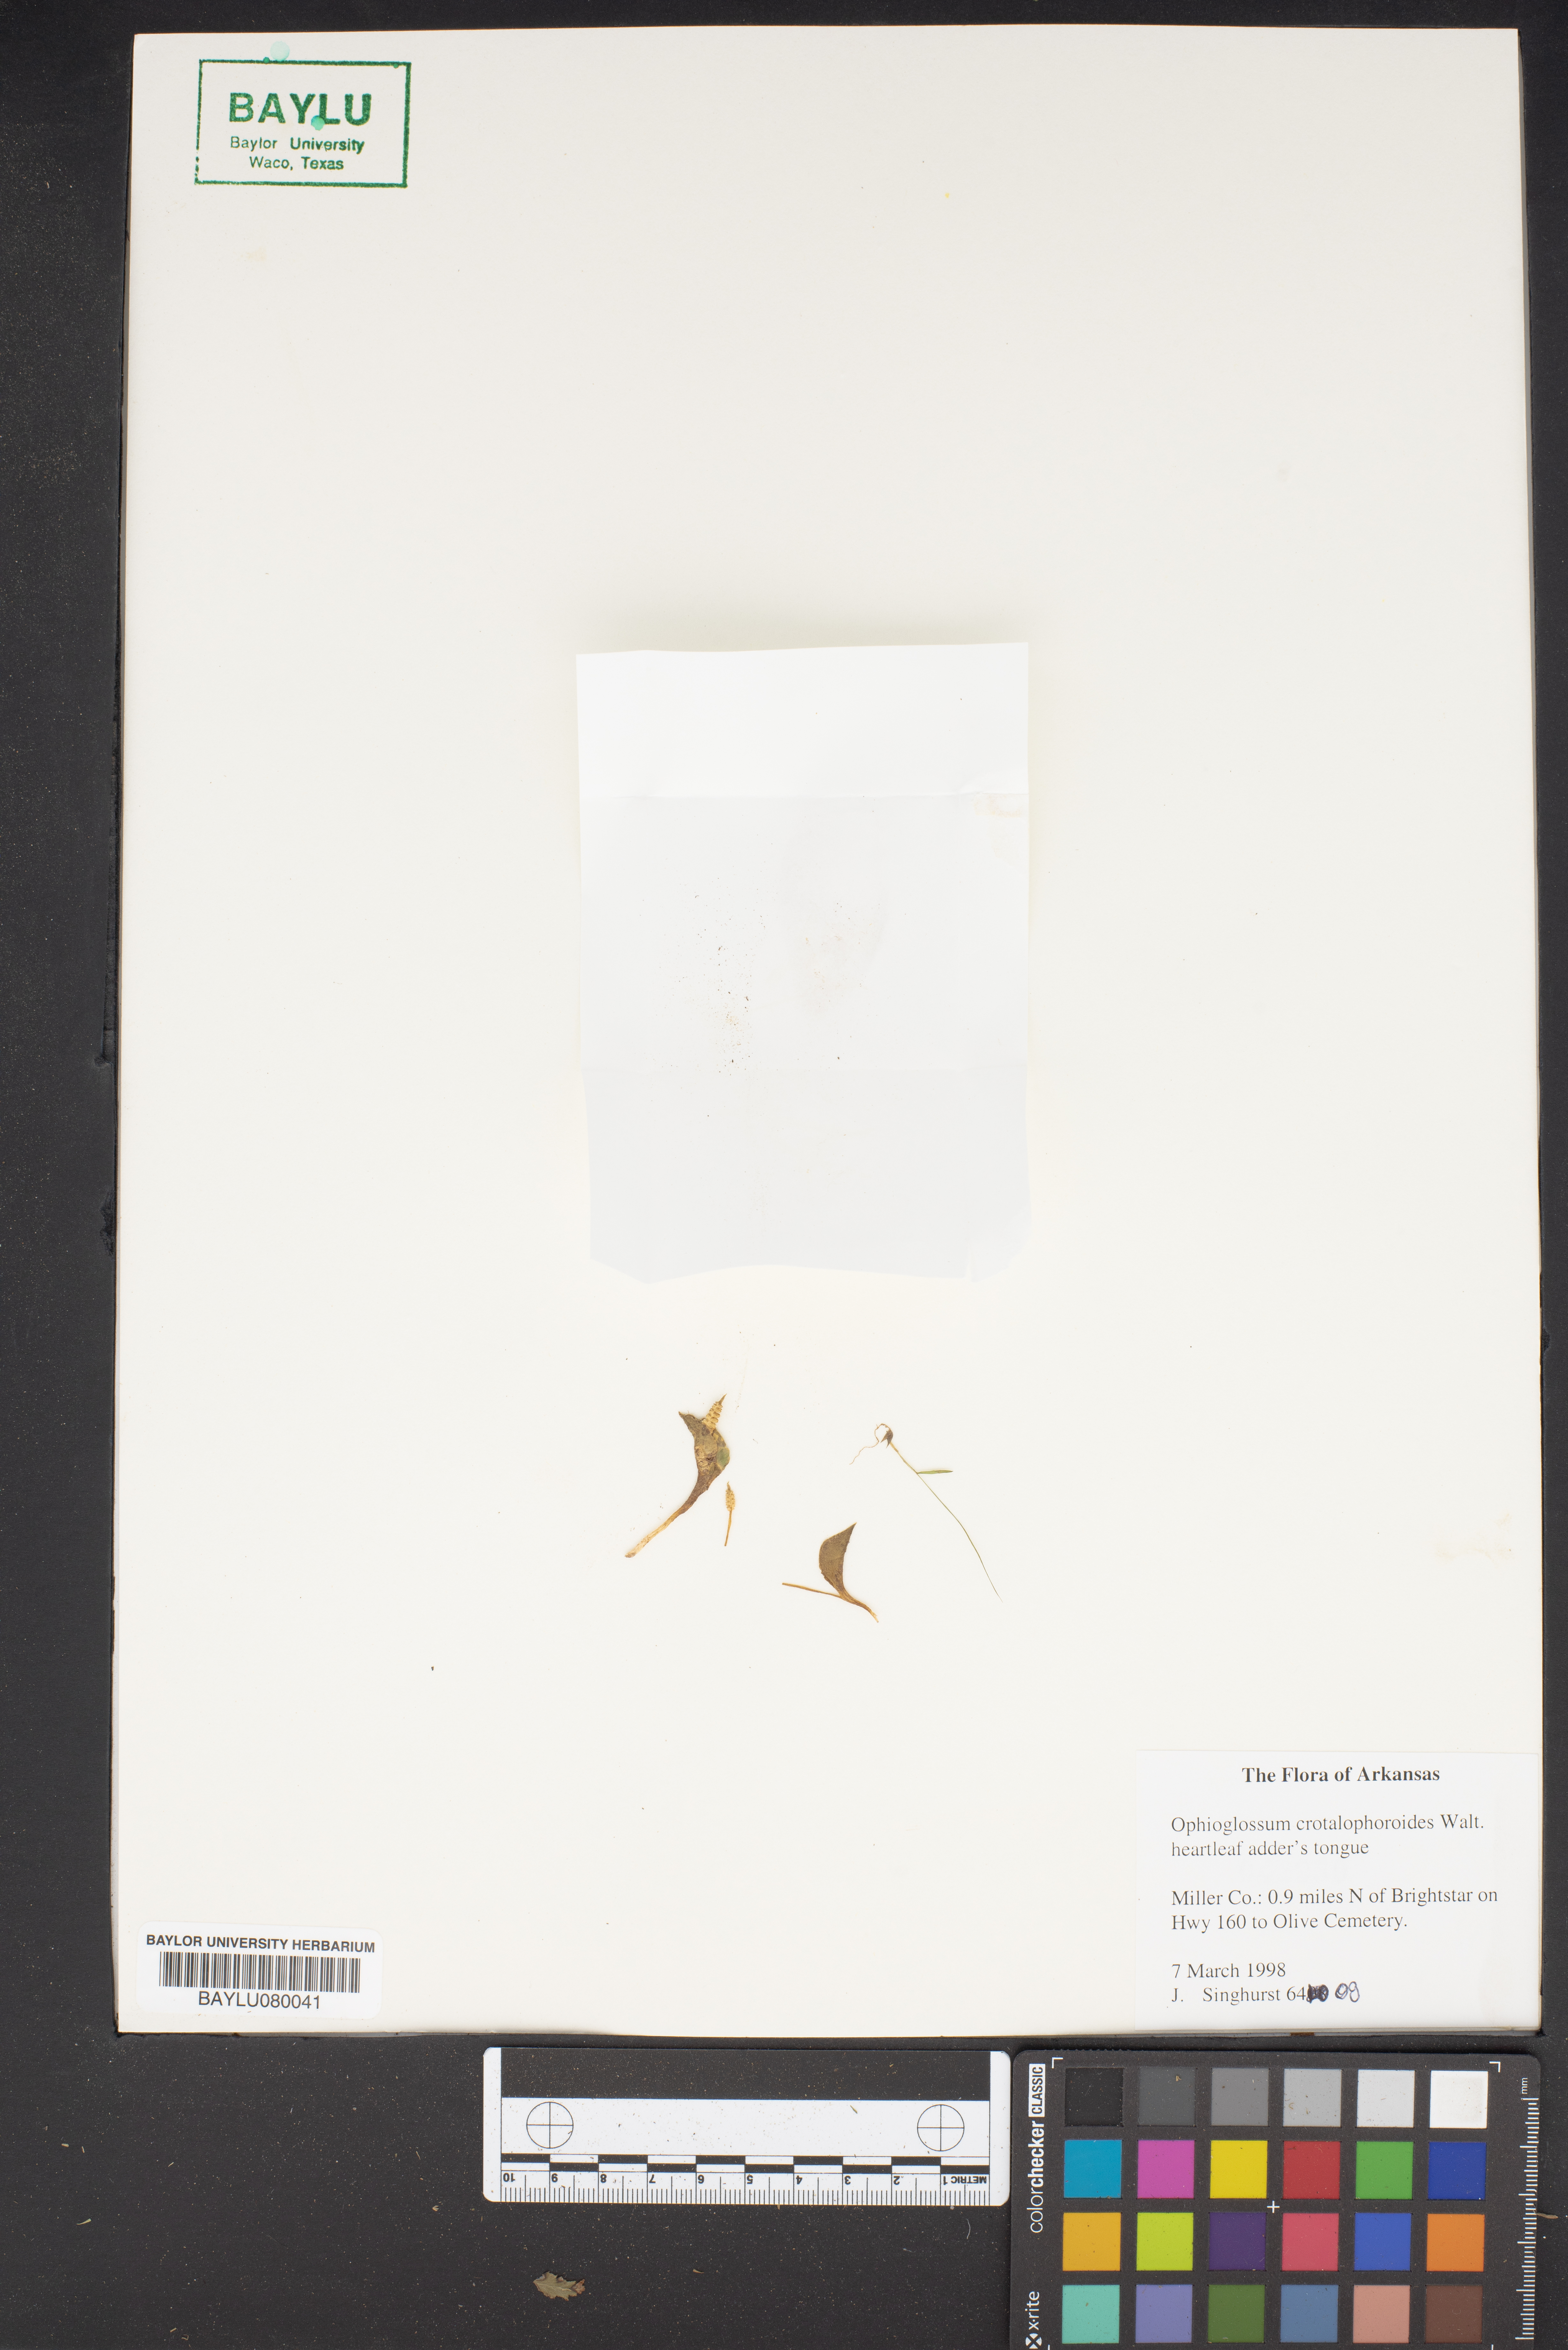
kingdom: Plantae
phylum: Tracheophyta
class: Polypodiopsida
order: Ophioglossales
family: Ophioglossaceae
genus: Ophioglossum
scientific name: Ophioglossum crotalophoroides
